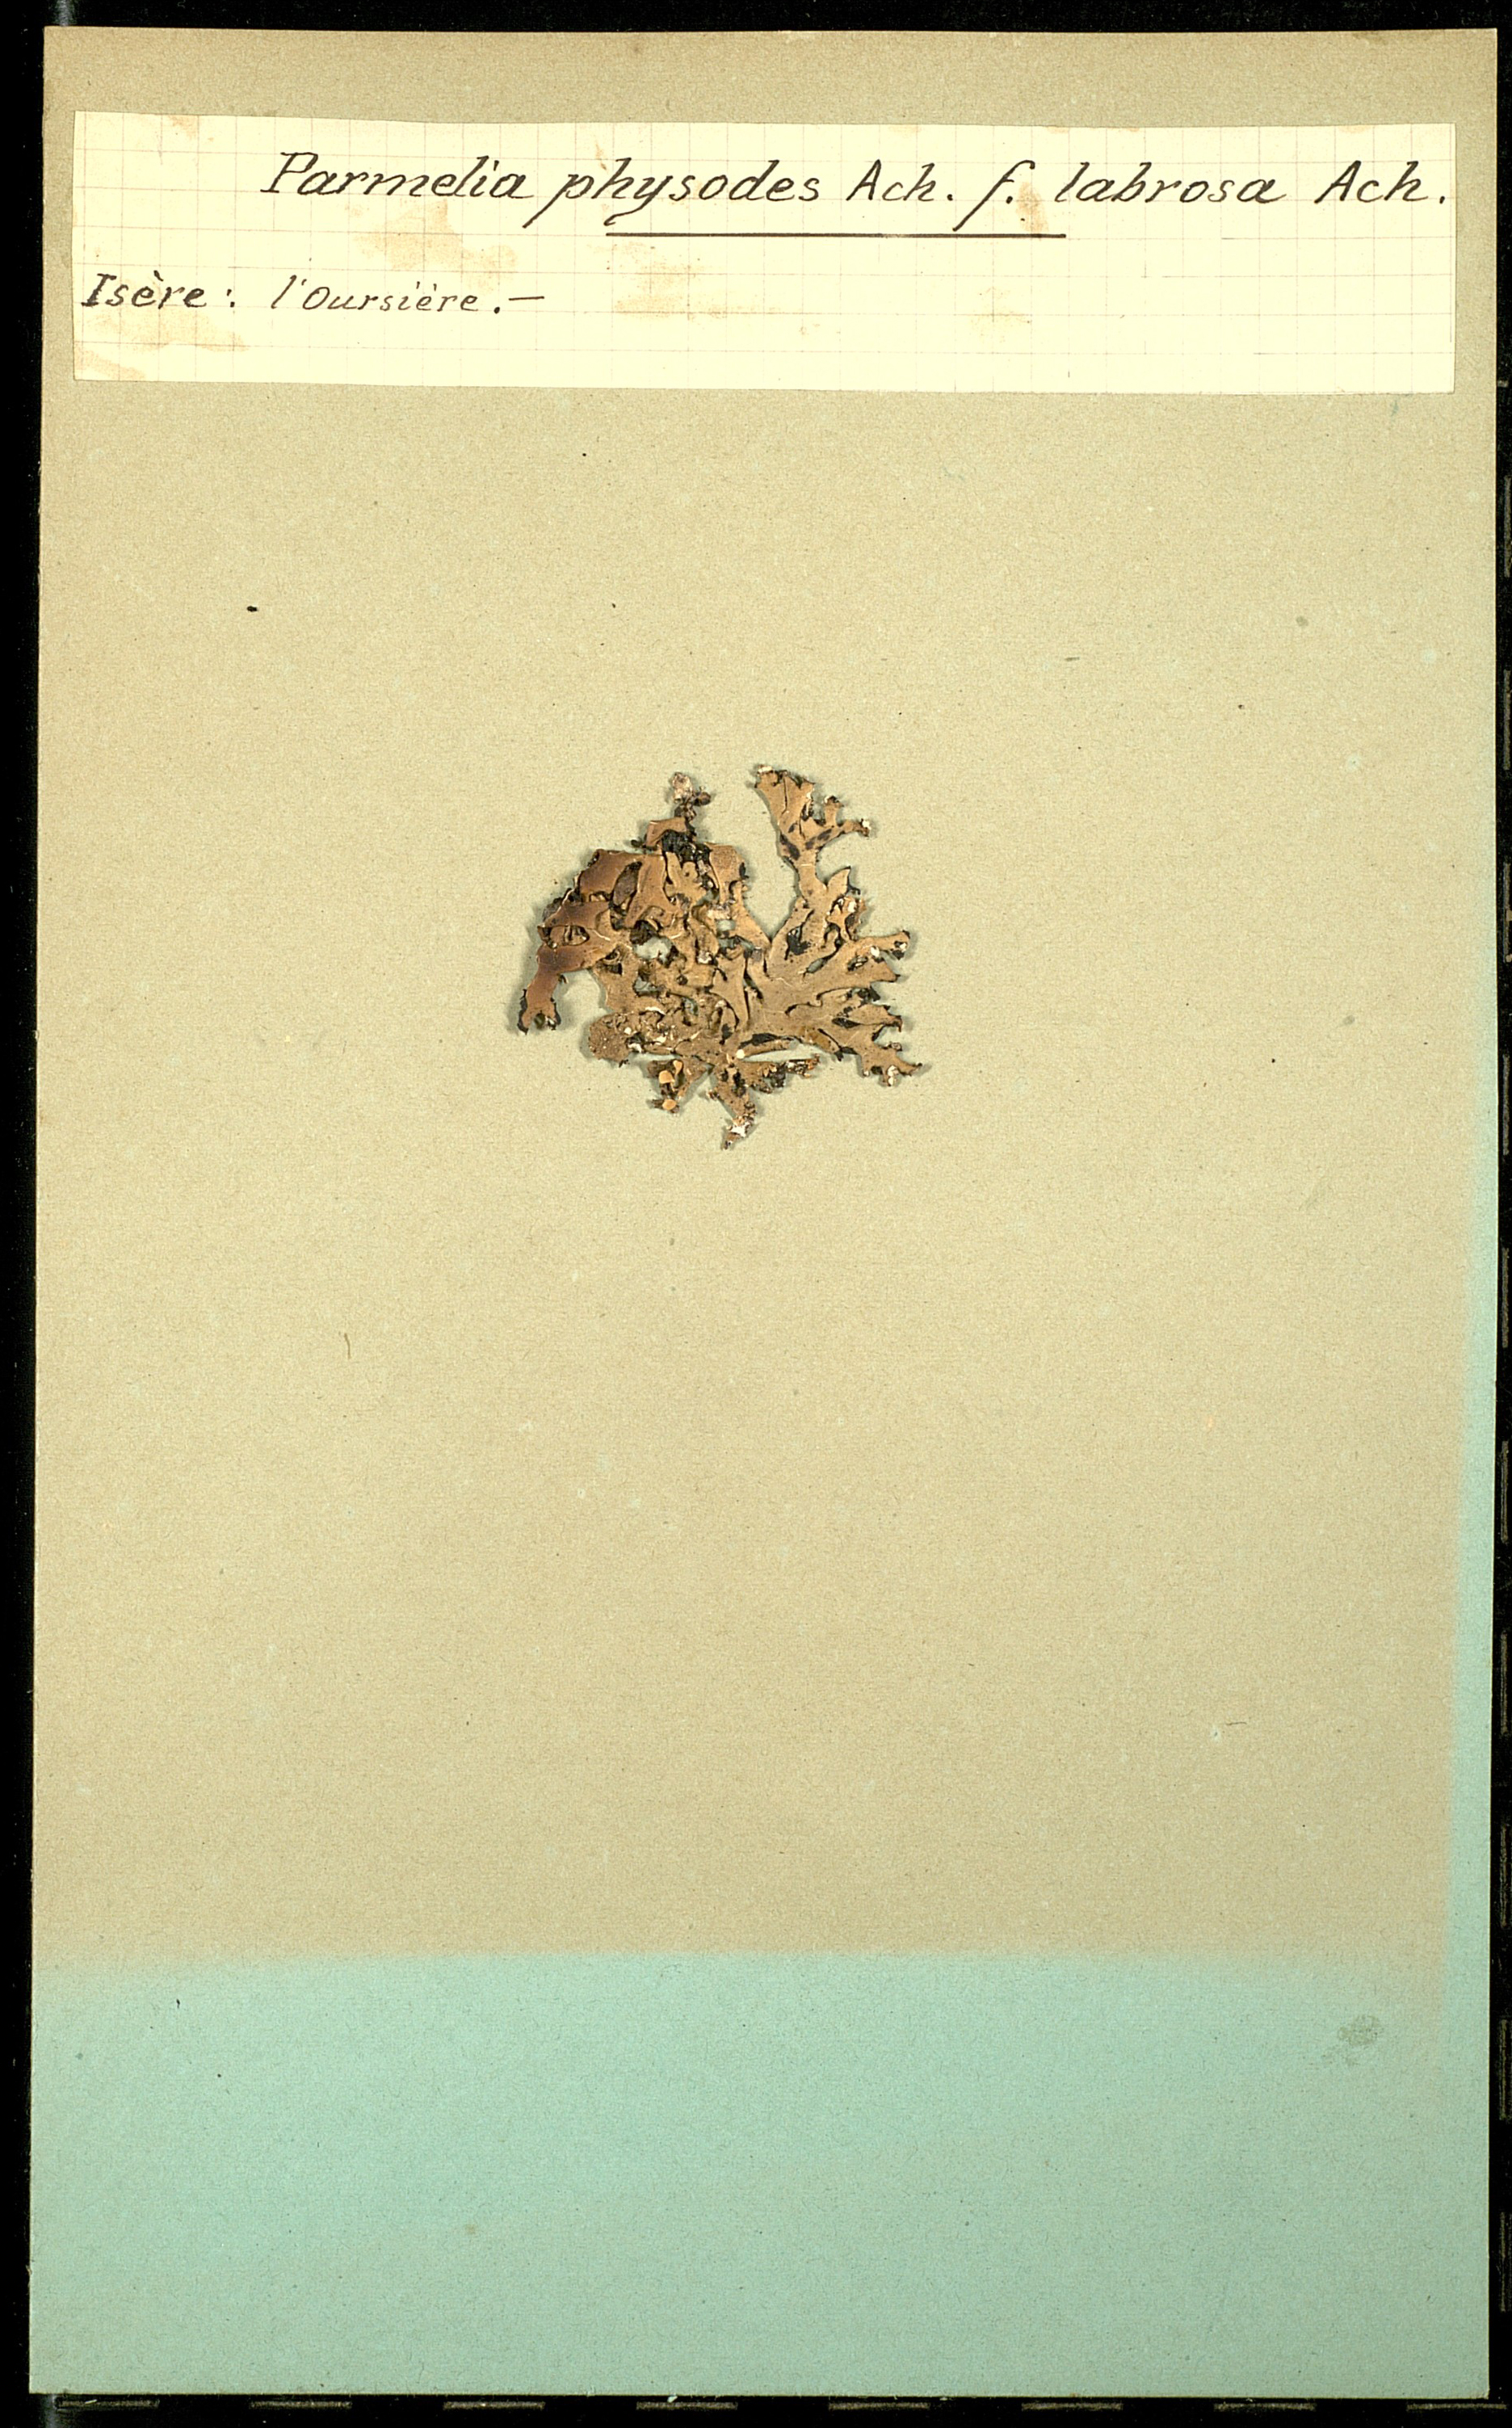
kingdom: Fungi
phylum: Ascomycota
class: Lecanoromycetes
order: Lecanorales
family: Parmeliaceae
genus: Hypogymnia
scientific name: Hypogymnia physodes
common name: Dark crottle
